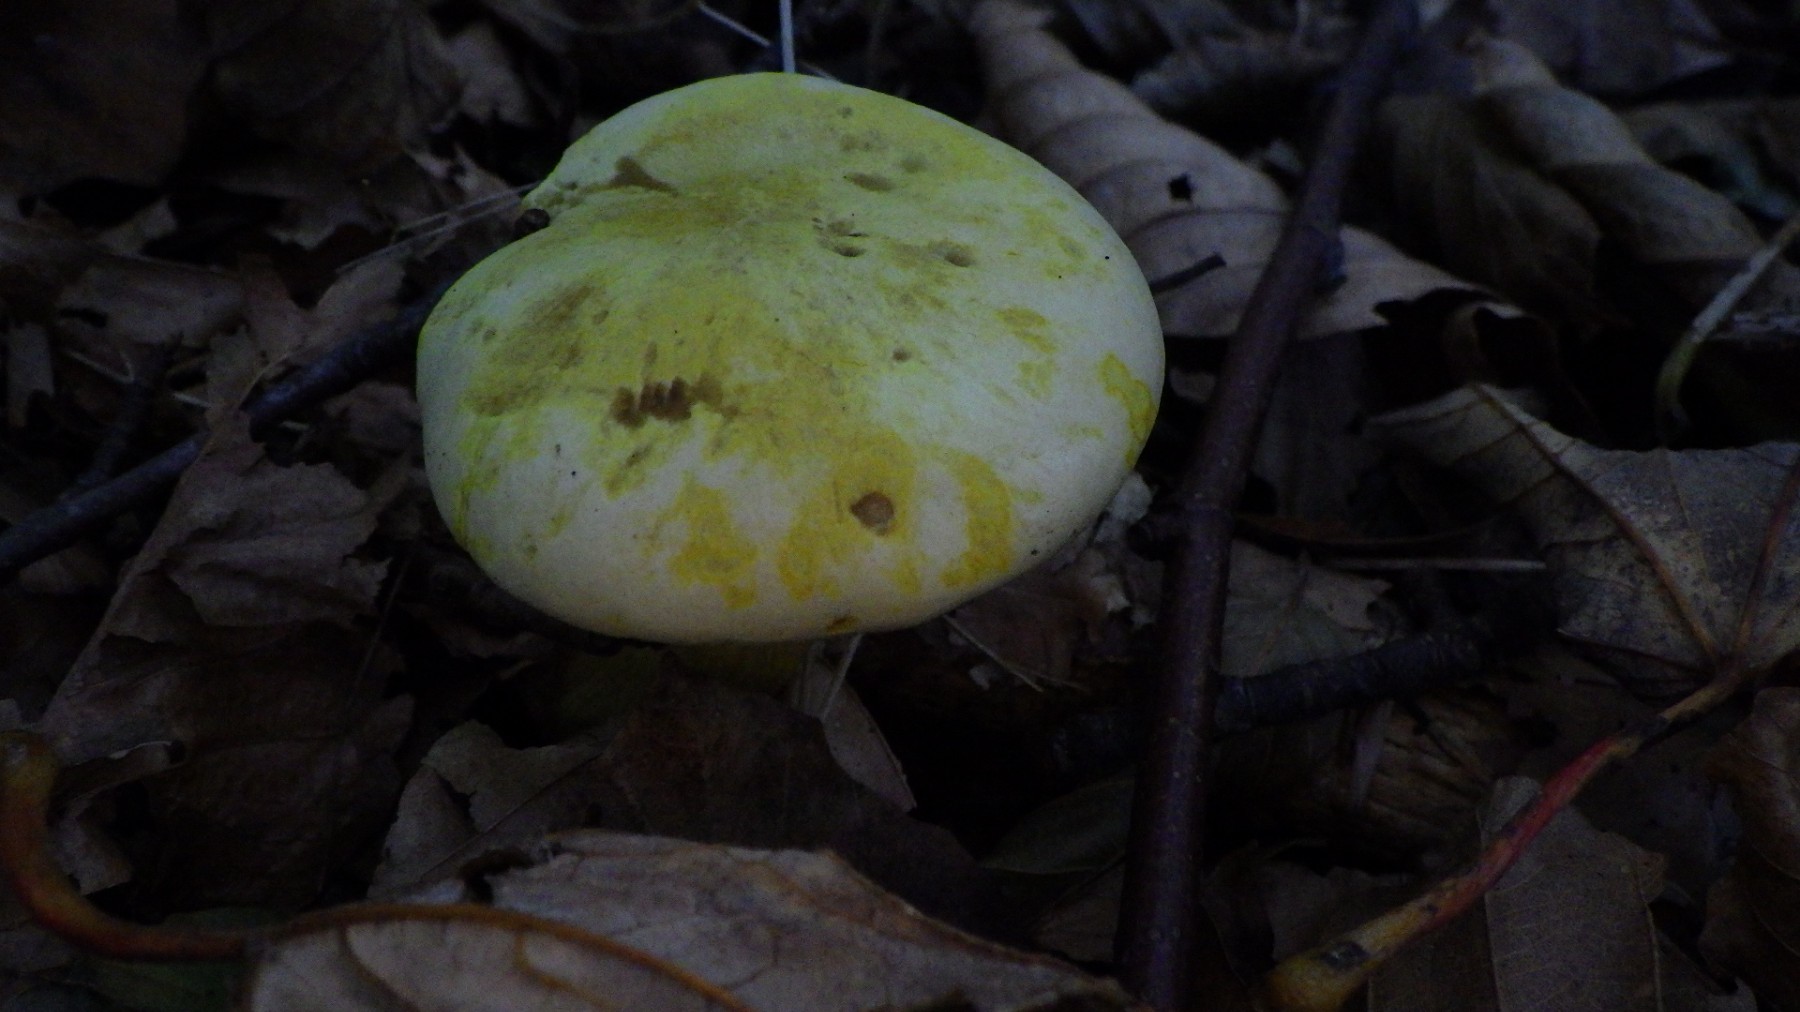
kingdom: Fungi
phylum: Basidiomycota
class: Agaricomycetes
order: Agaricales
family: Tricholomataceae
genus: Tricholoma
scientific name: Tricholoma sulphureum
